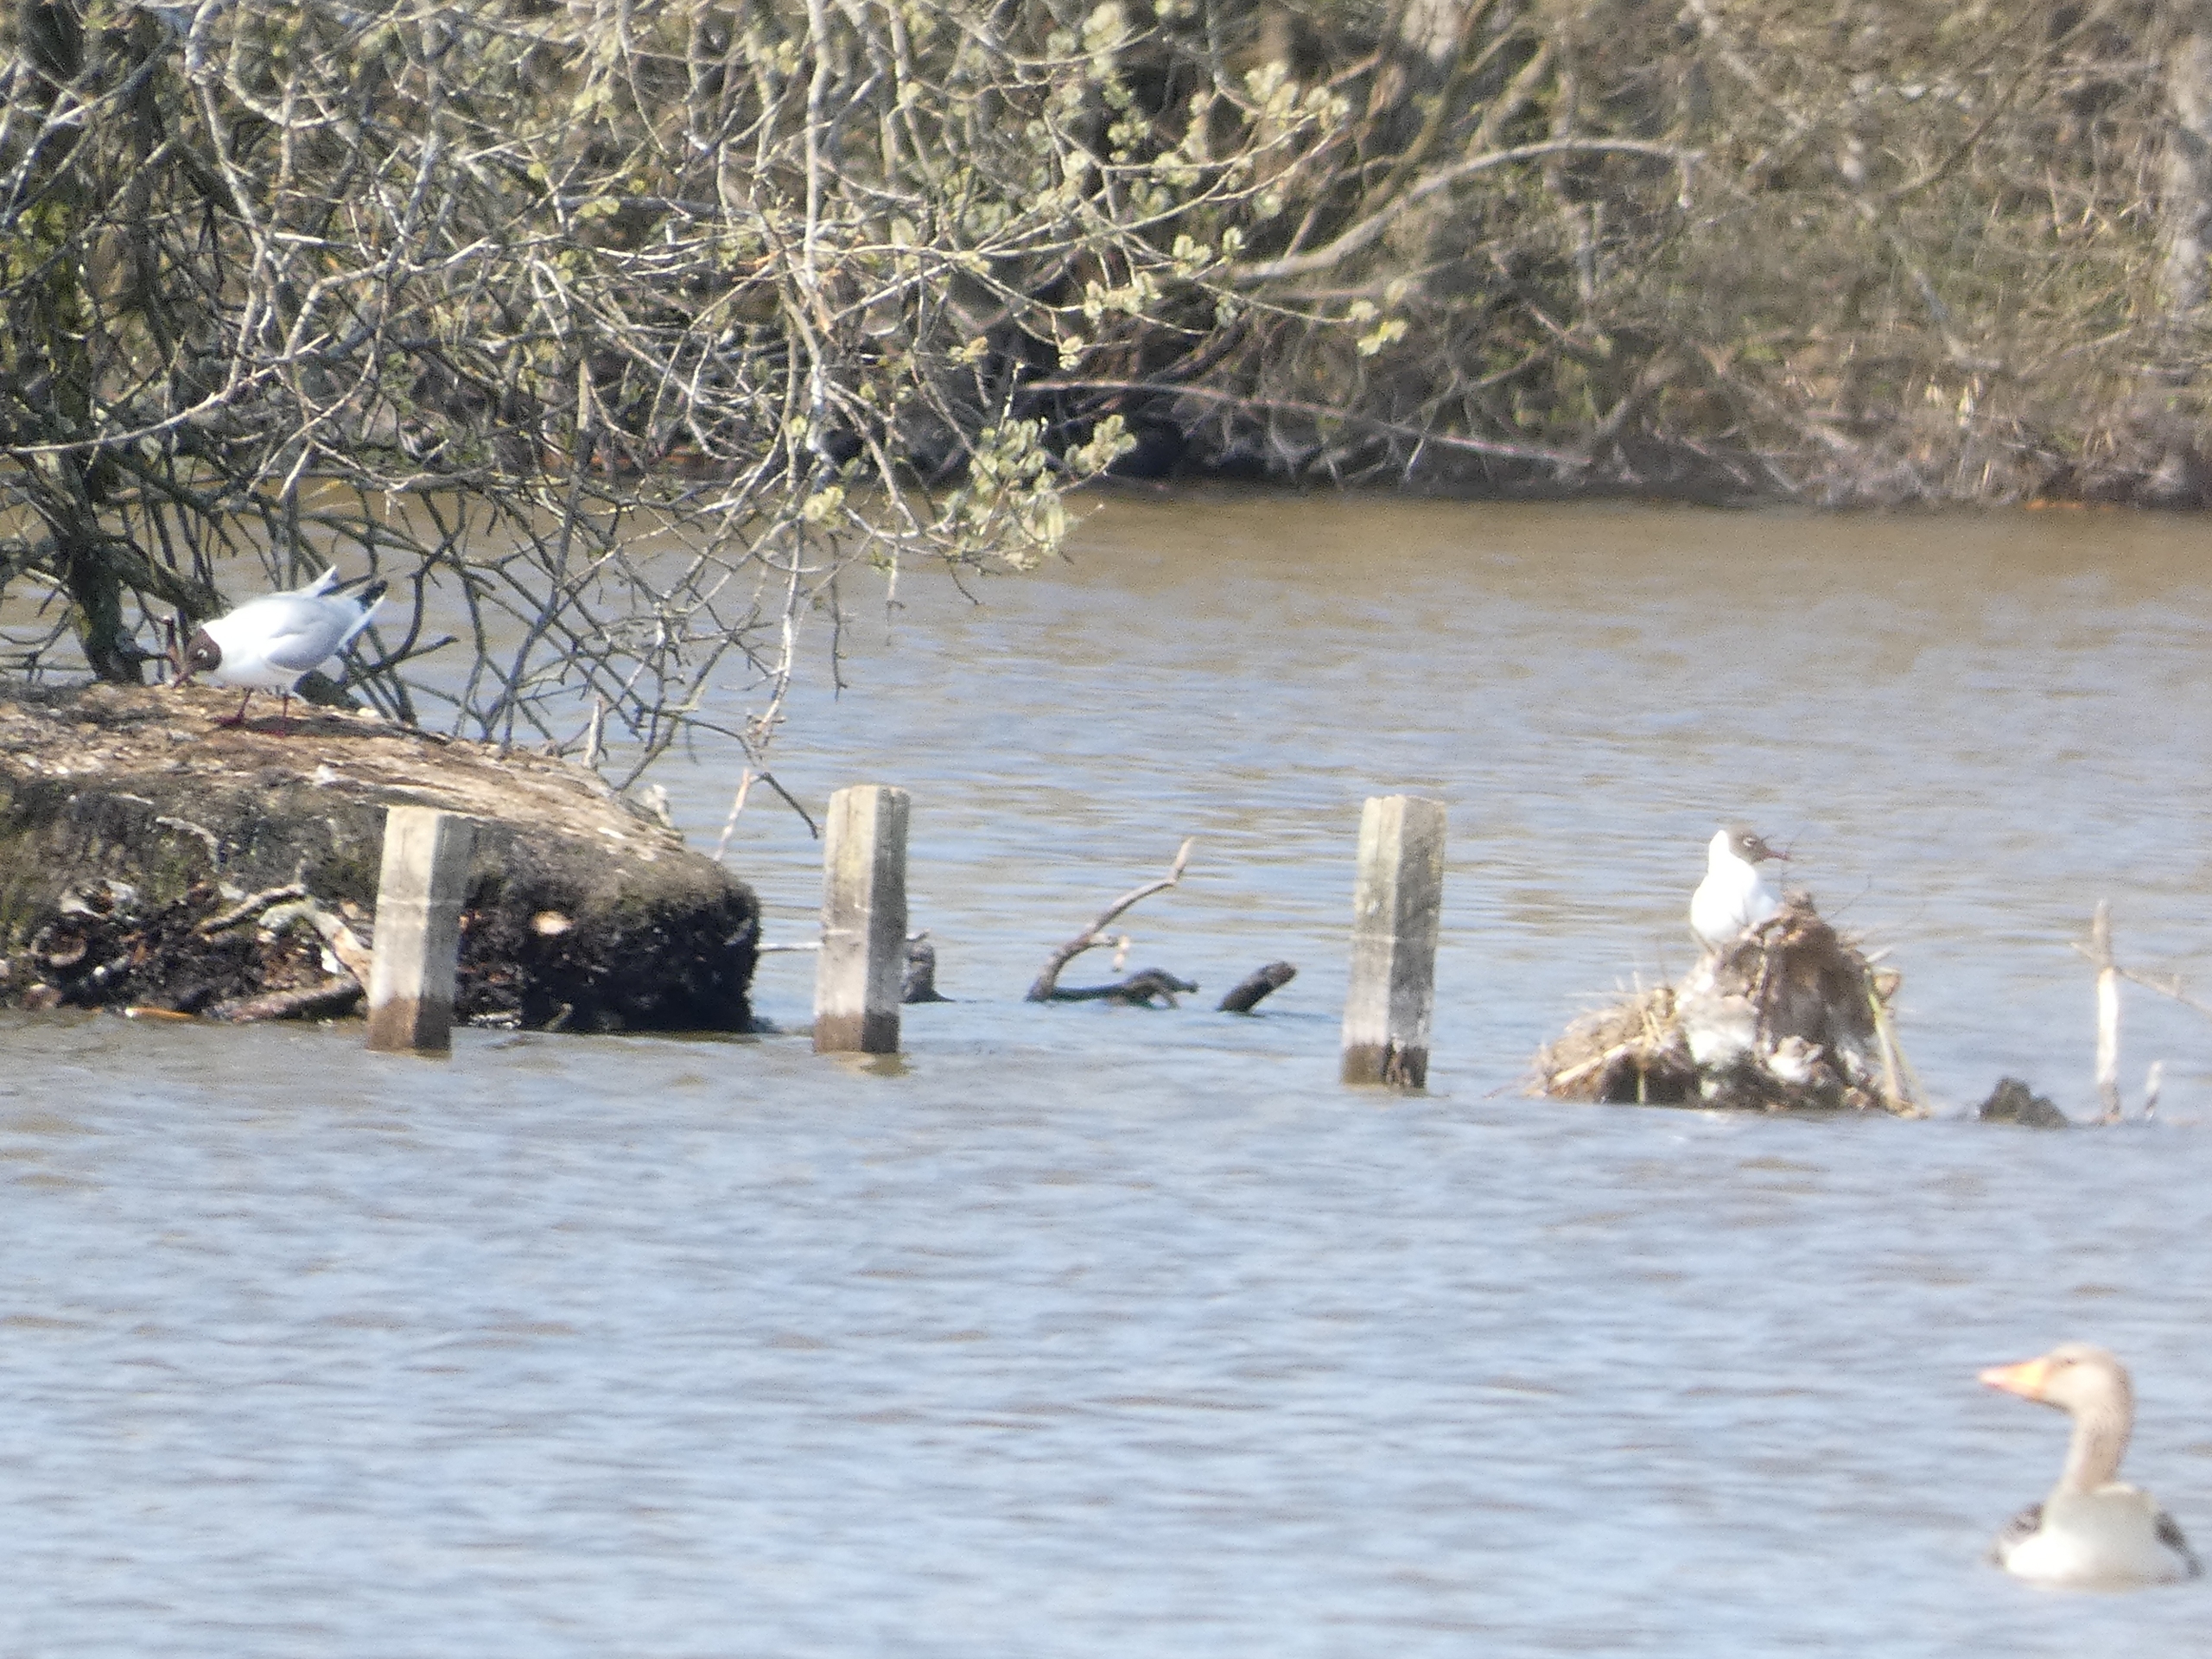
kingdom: Animalia
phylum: Chordata
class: Aves
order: Charadriiformes
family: Laridae
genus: Chroicocephalus
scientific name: Chroicocephalus ridibundus
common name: Hættemåge
